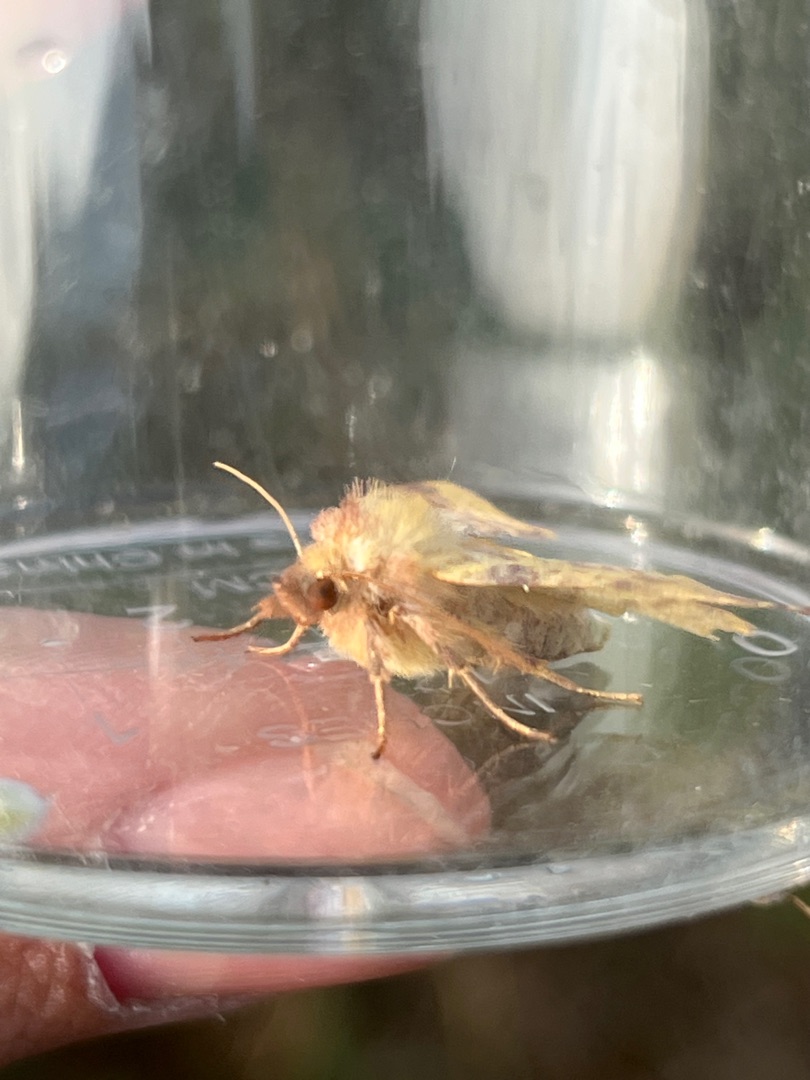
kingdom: Animalia
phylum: Arthropoda
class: Insecta
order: Lepidoptera
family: Noctuidae
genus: Xanthia
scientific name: Xanthia togata
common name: Toga-septemberugle
